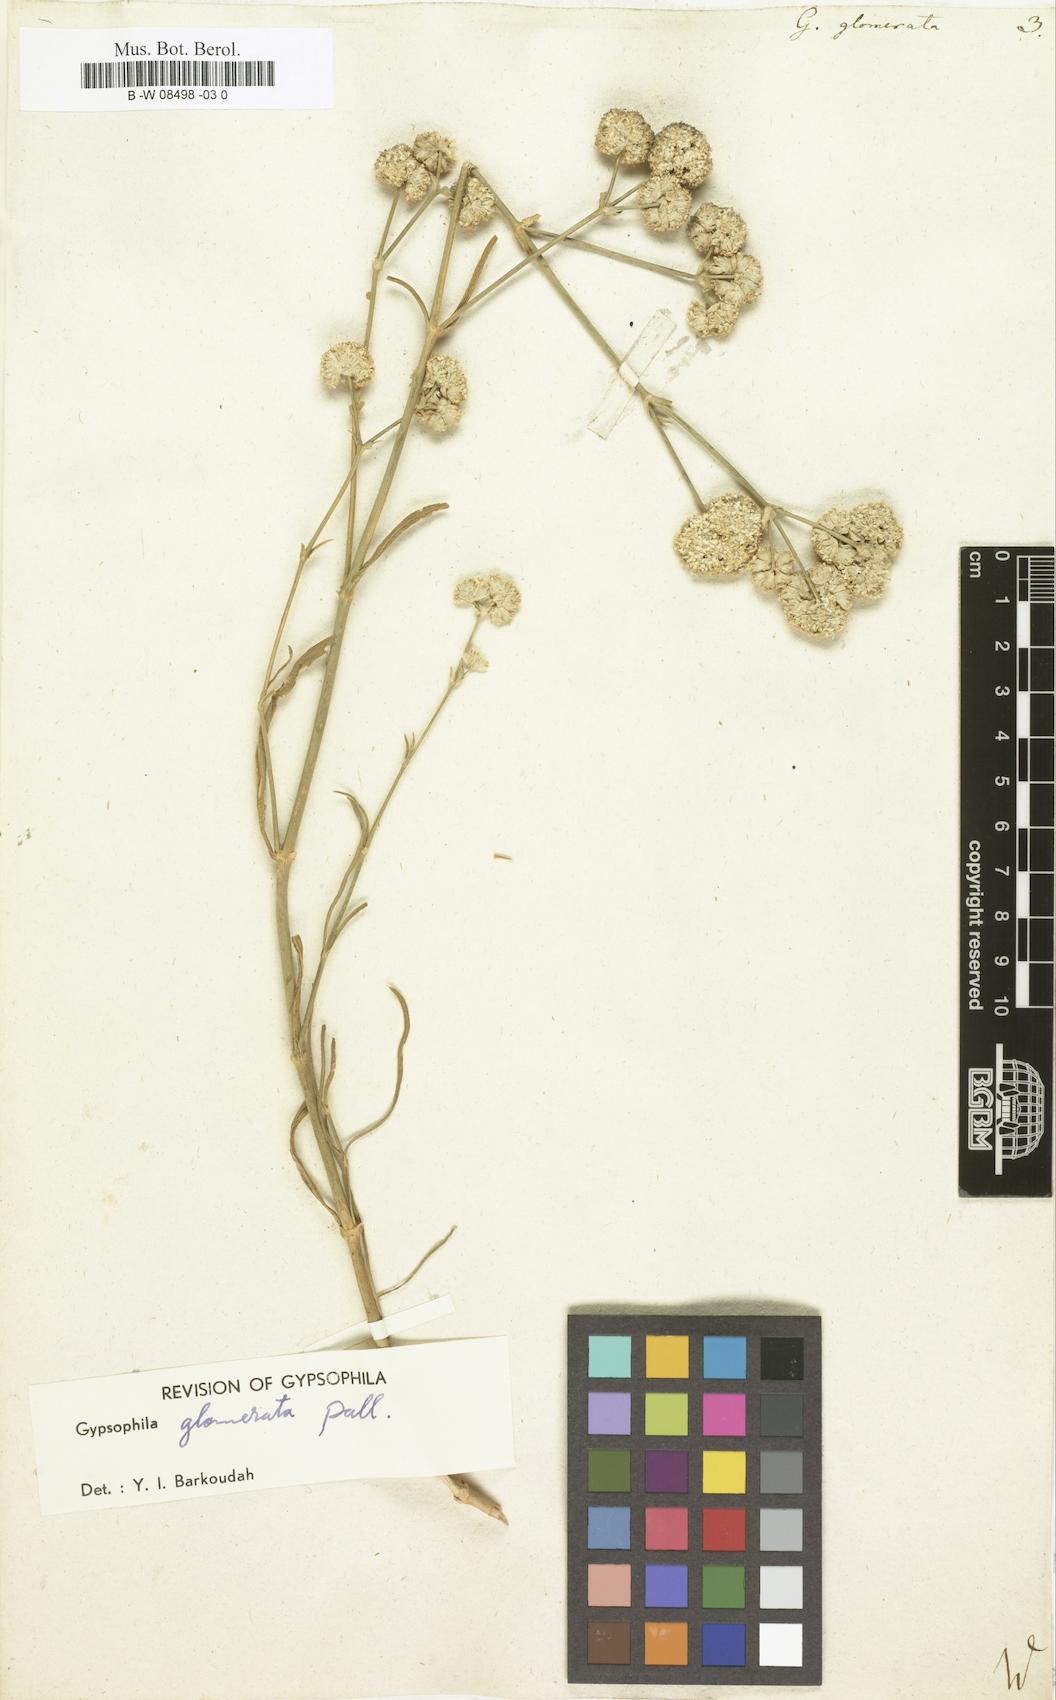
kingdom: Plantae
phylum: Tracheophyta
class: Magnoliopsida
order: Caryophyllales
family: Caryophyllaceae
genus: Gypsophila
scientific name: Gypsophila glomerata
